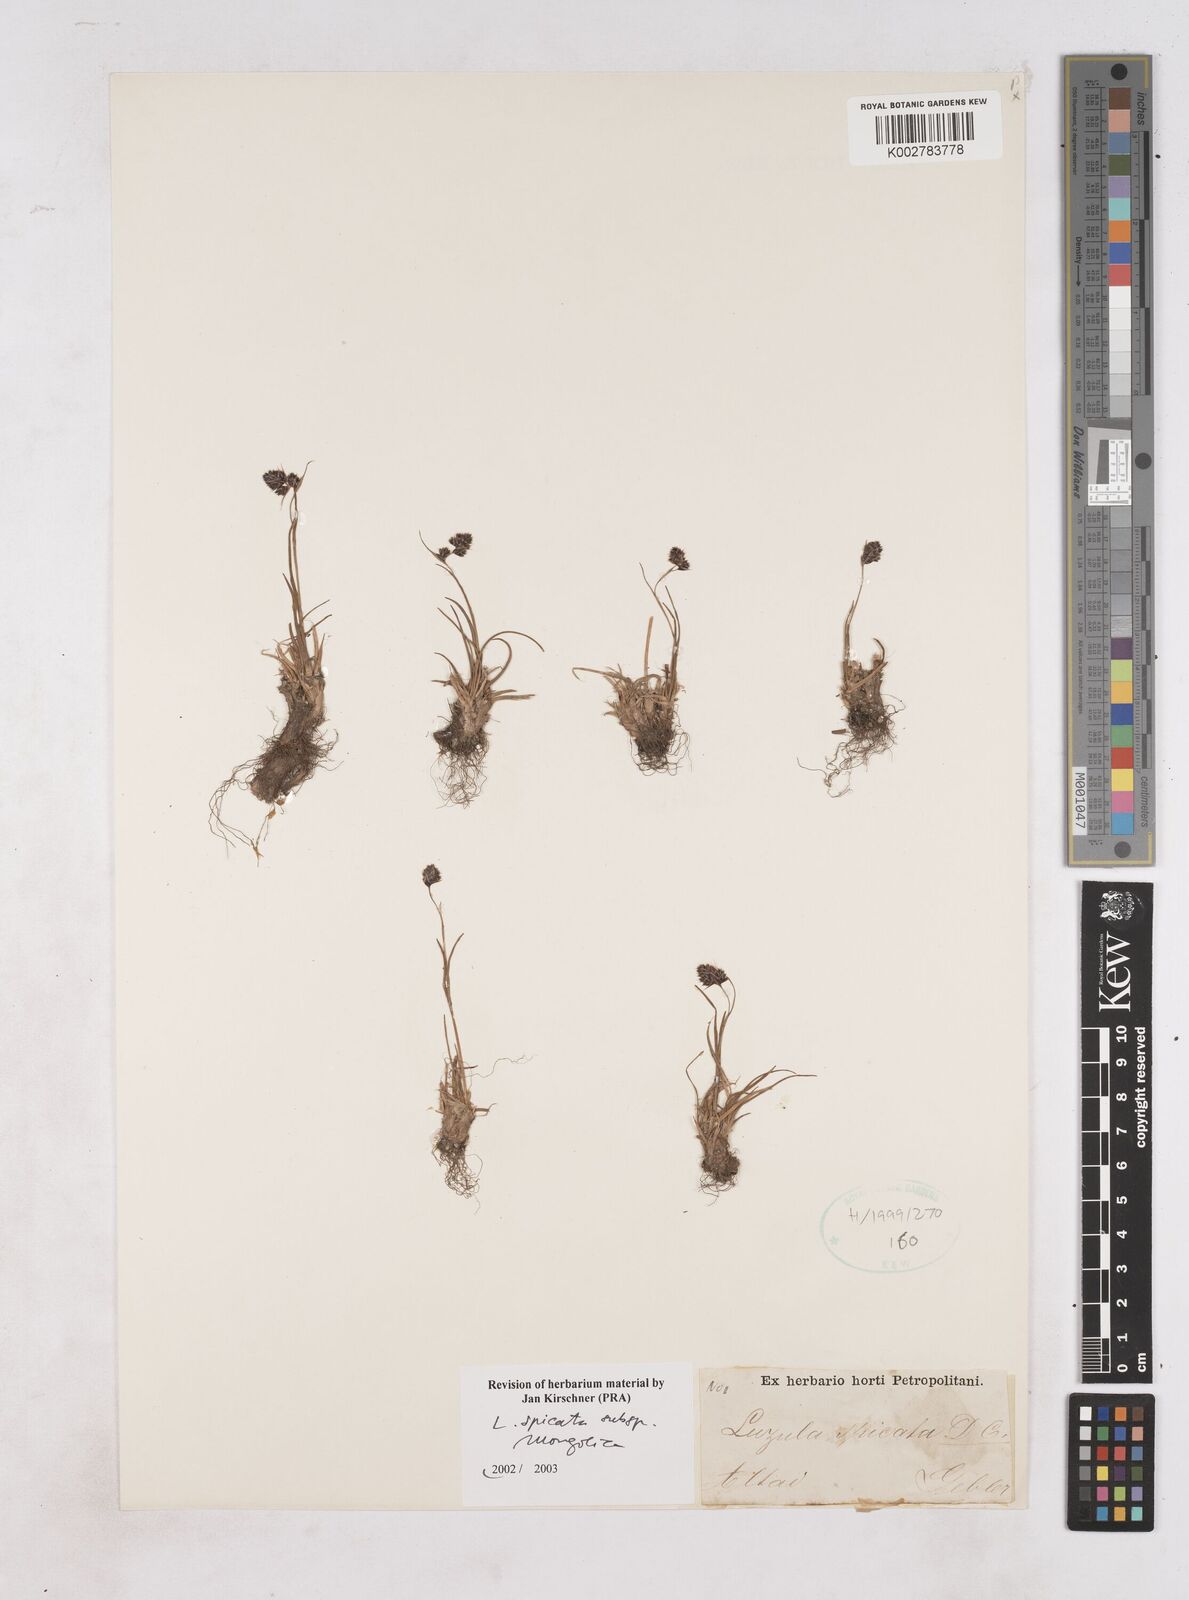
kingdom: Plantae
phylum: Tracheophyta
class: Liliopsida
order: Poales
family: Juncaceae
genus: Luzula
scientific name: Luzula spicata
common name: Spiked wood-rush
